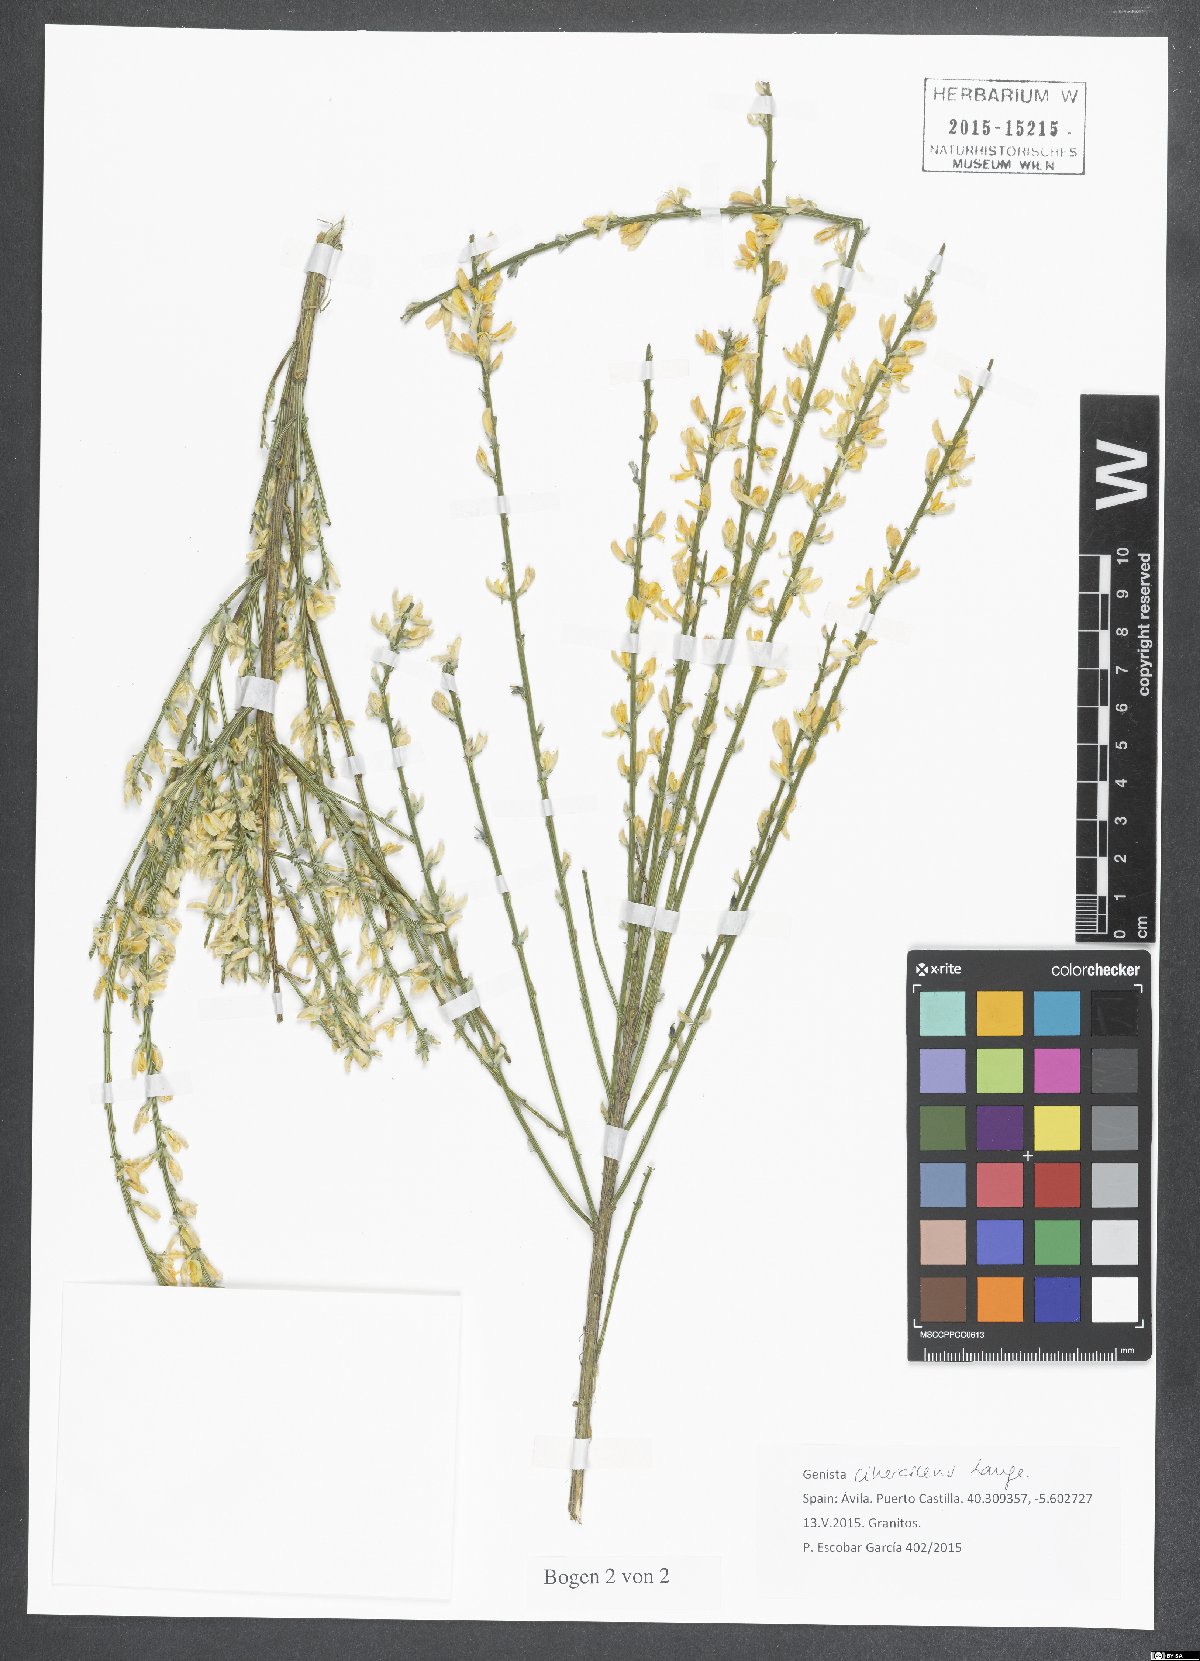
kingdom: Plantae
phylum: Tracheophyta
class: Magnoliopsida
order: Fabales
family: Fabaceae
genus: Genista
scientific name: Genista cinerascens
